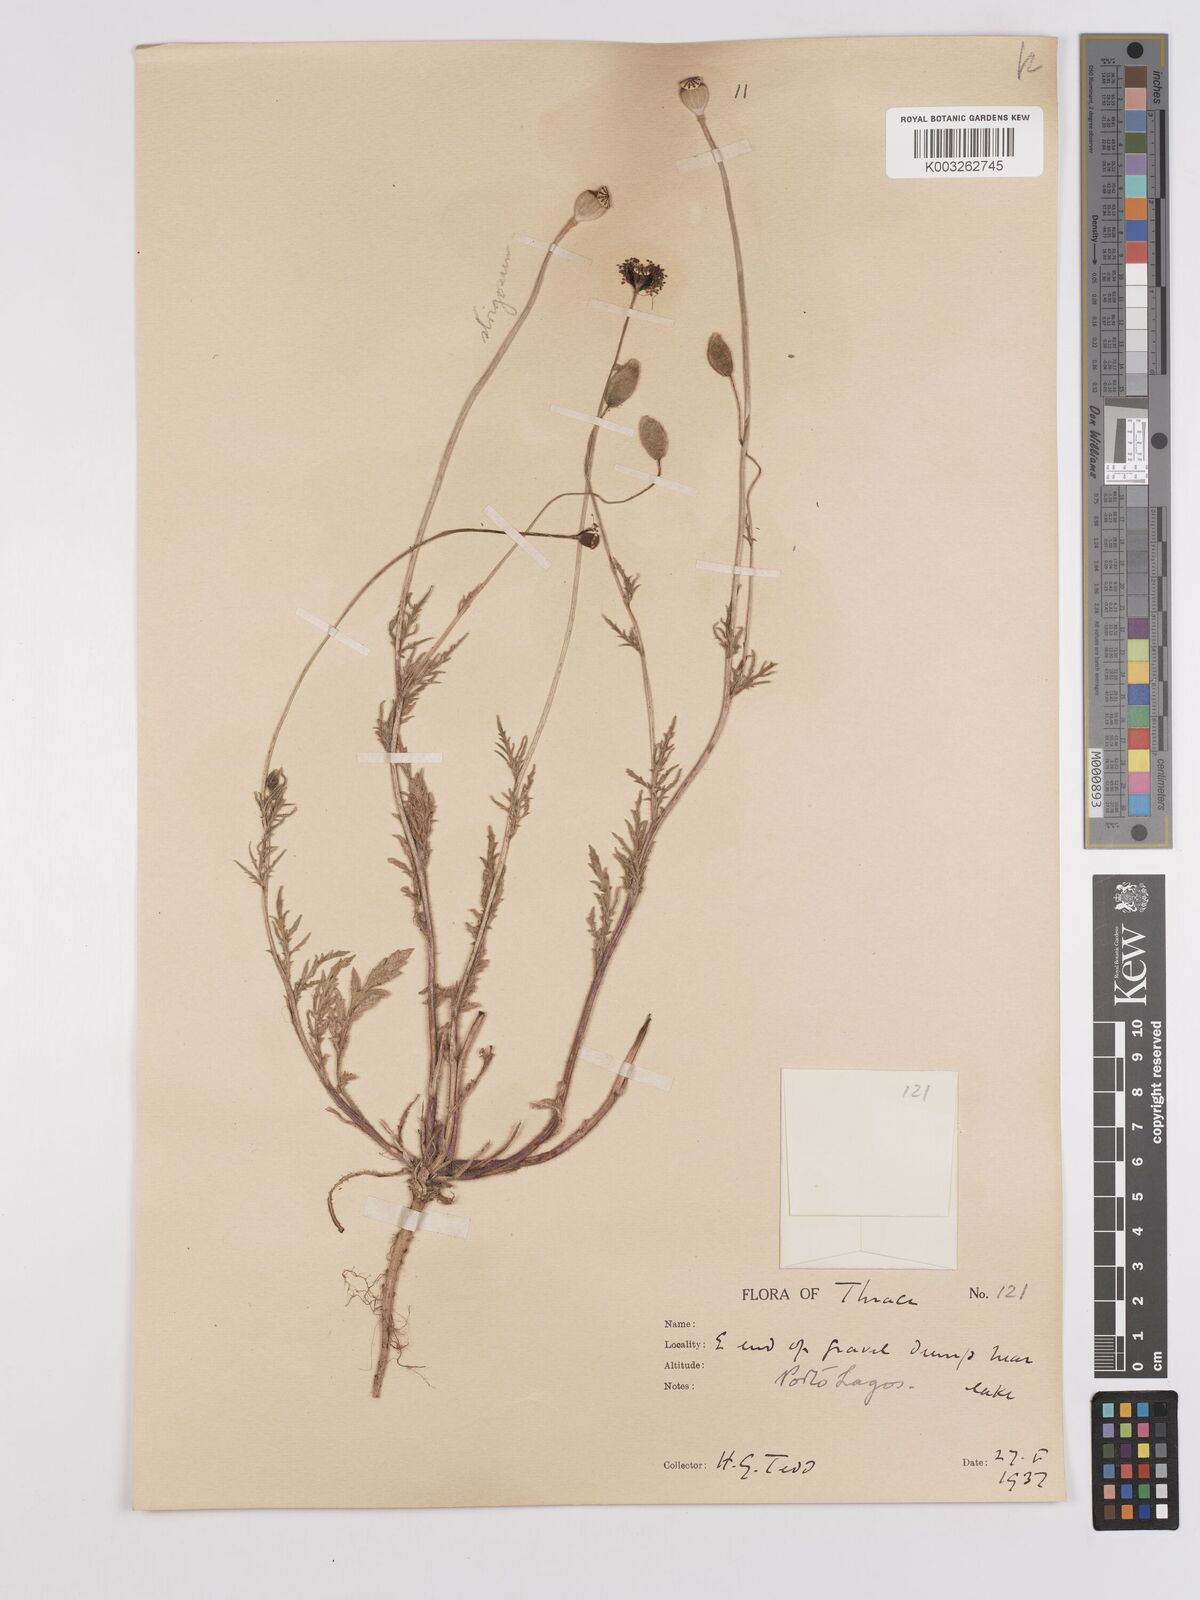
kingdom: Plantae
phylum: Tracheophyta
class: Magnoliopsida
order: Ranunculales
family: Papaveraceae
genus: Papaver
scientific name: Papaver
